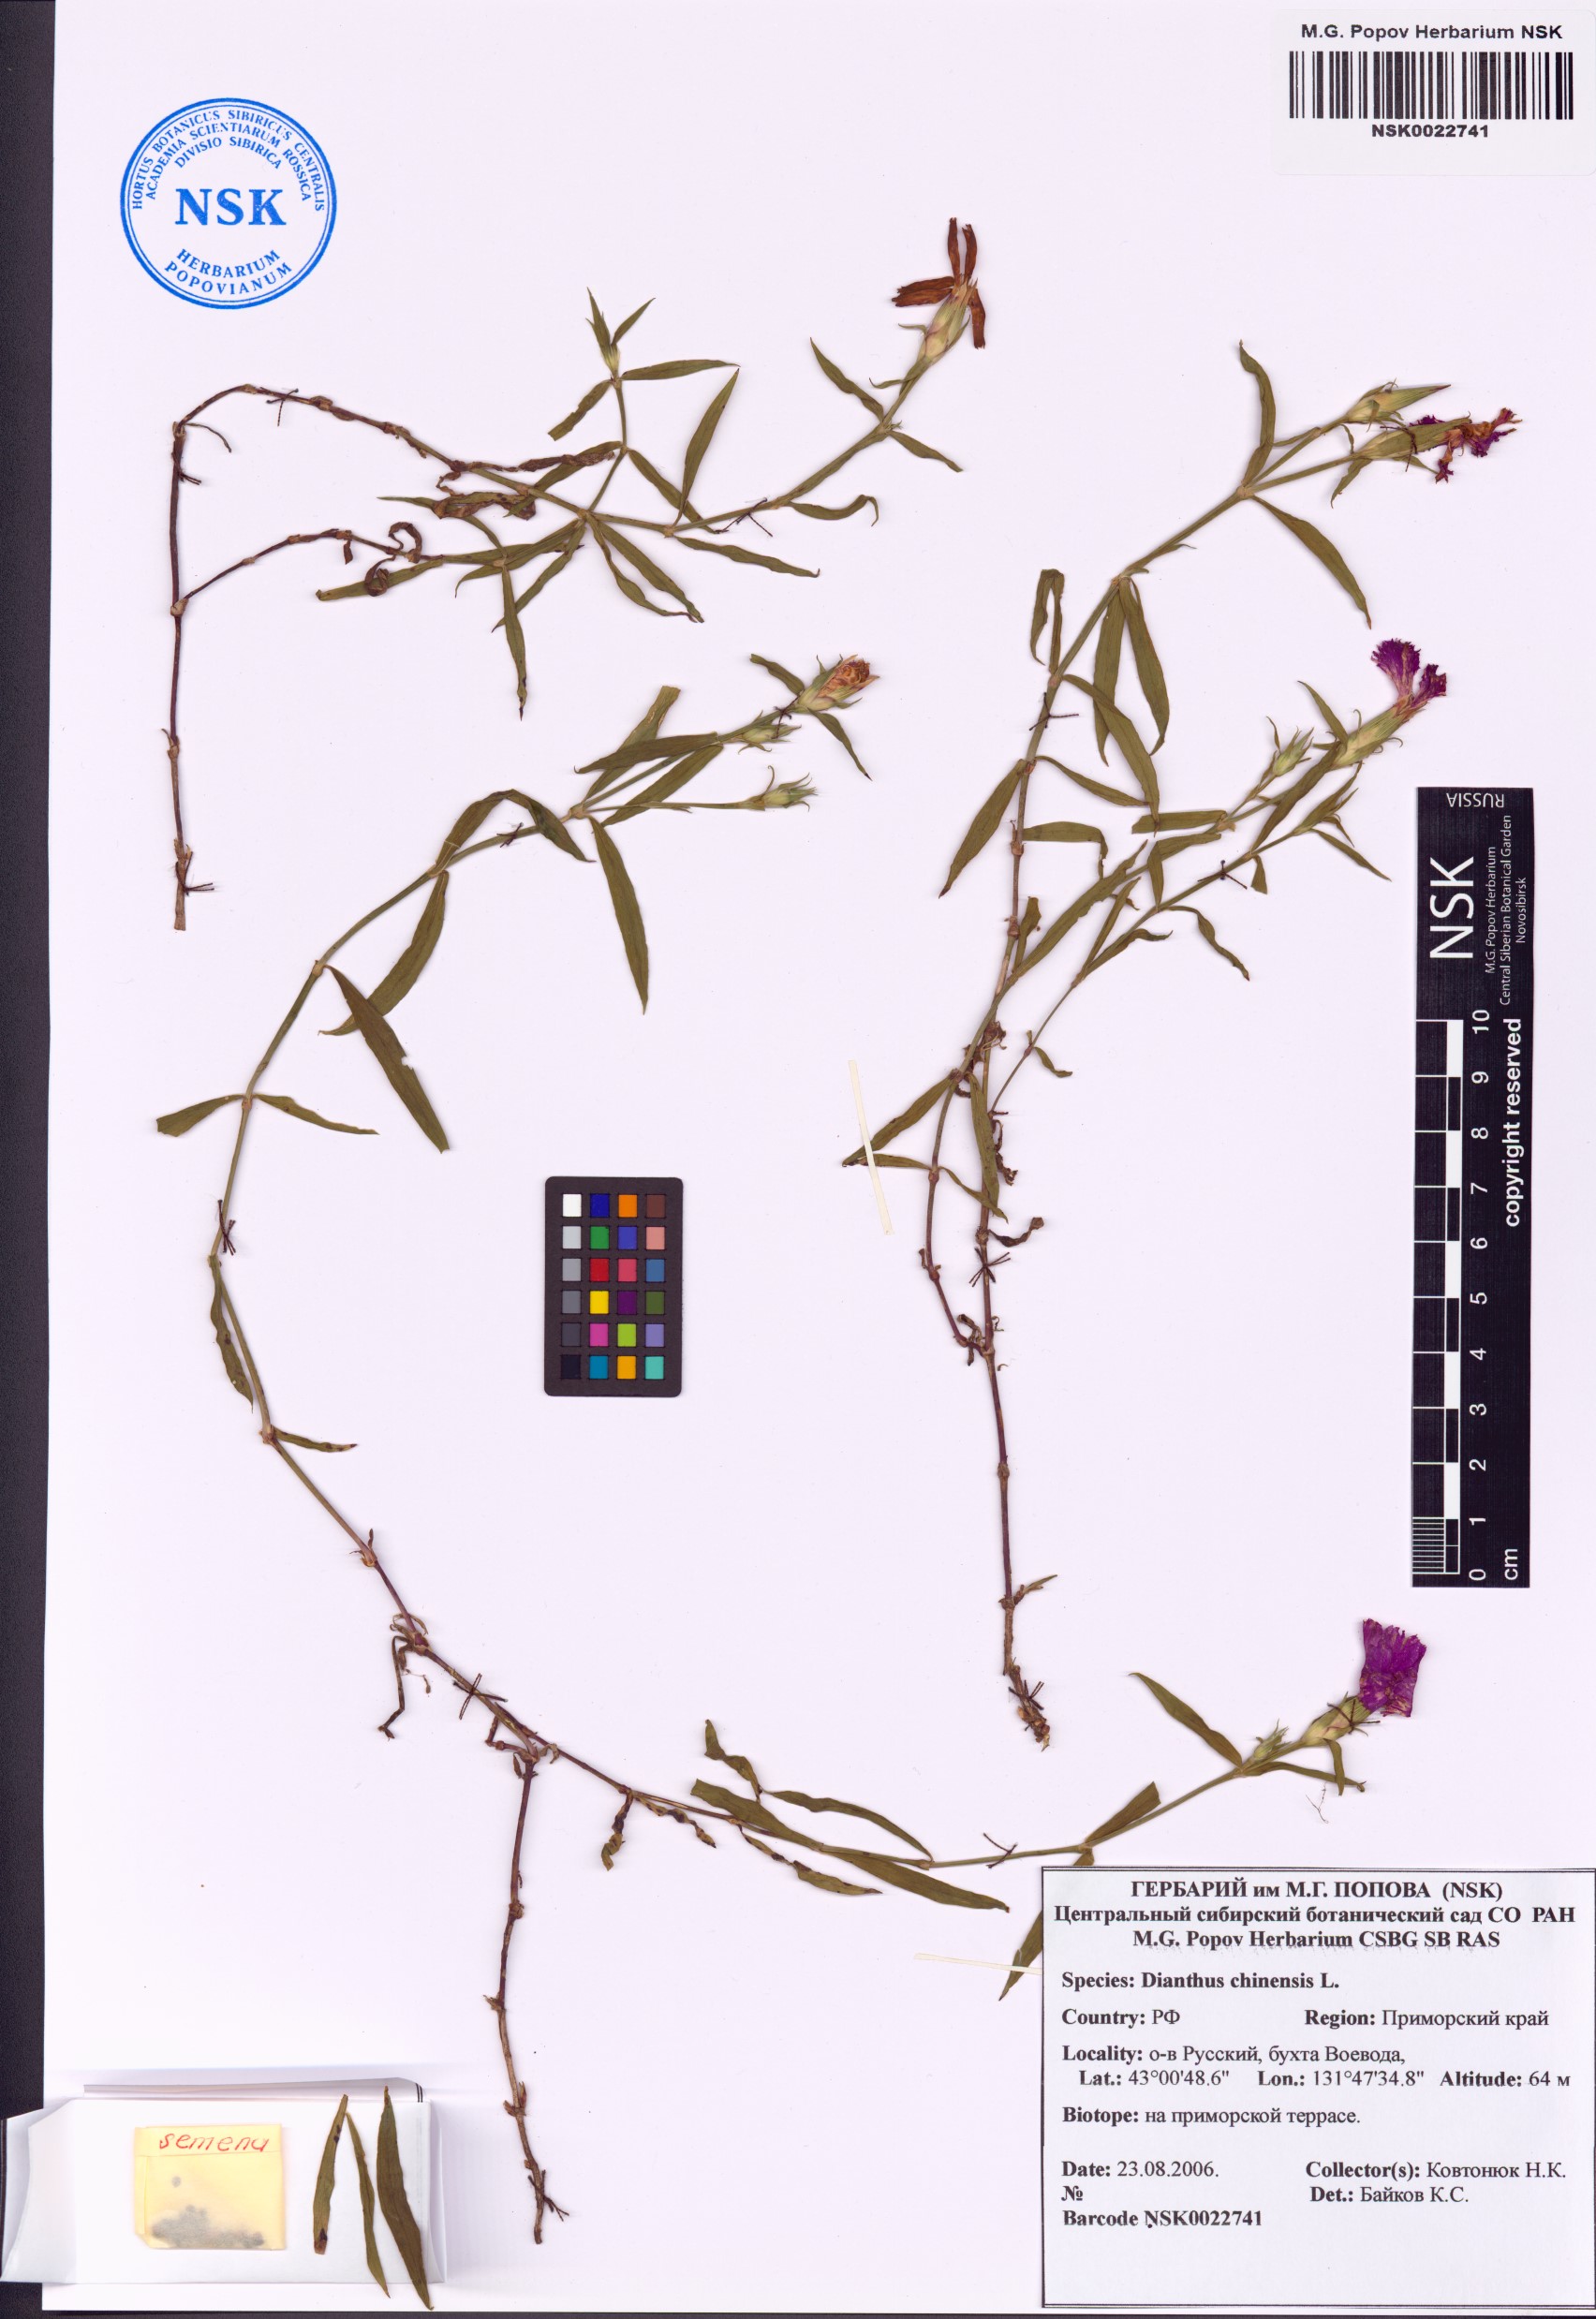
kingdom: Plantae
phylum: Tracheophyta
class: Magnoliopsida
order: Caryophyllales
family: Caryophyllaceae
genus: Dianthus
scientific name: Dianthus chinensis
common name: Rainbow pink
